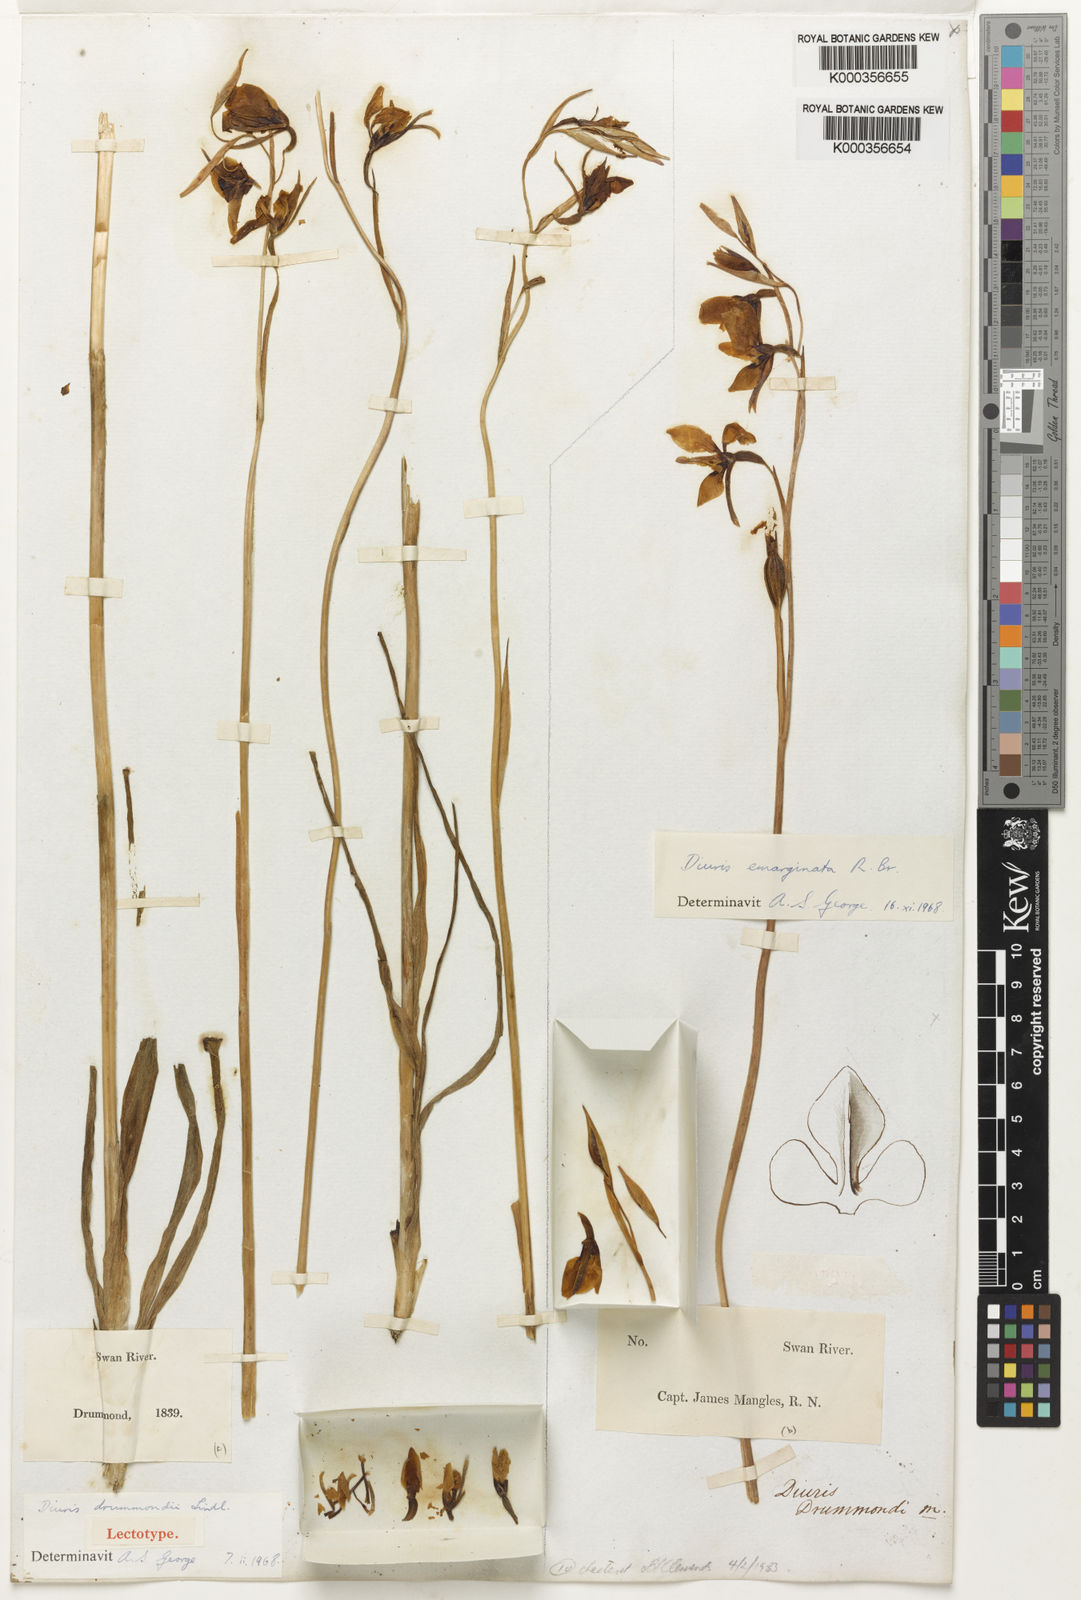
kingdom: Plantae
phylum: Tracheophyta
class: Liliopsida
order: Asparagales
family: Orchidaceae
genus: Diuris
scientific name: Diuris drummondii
